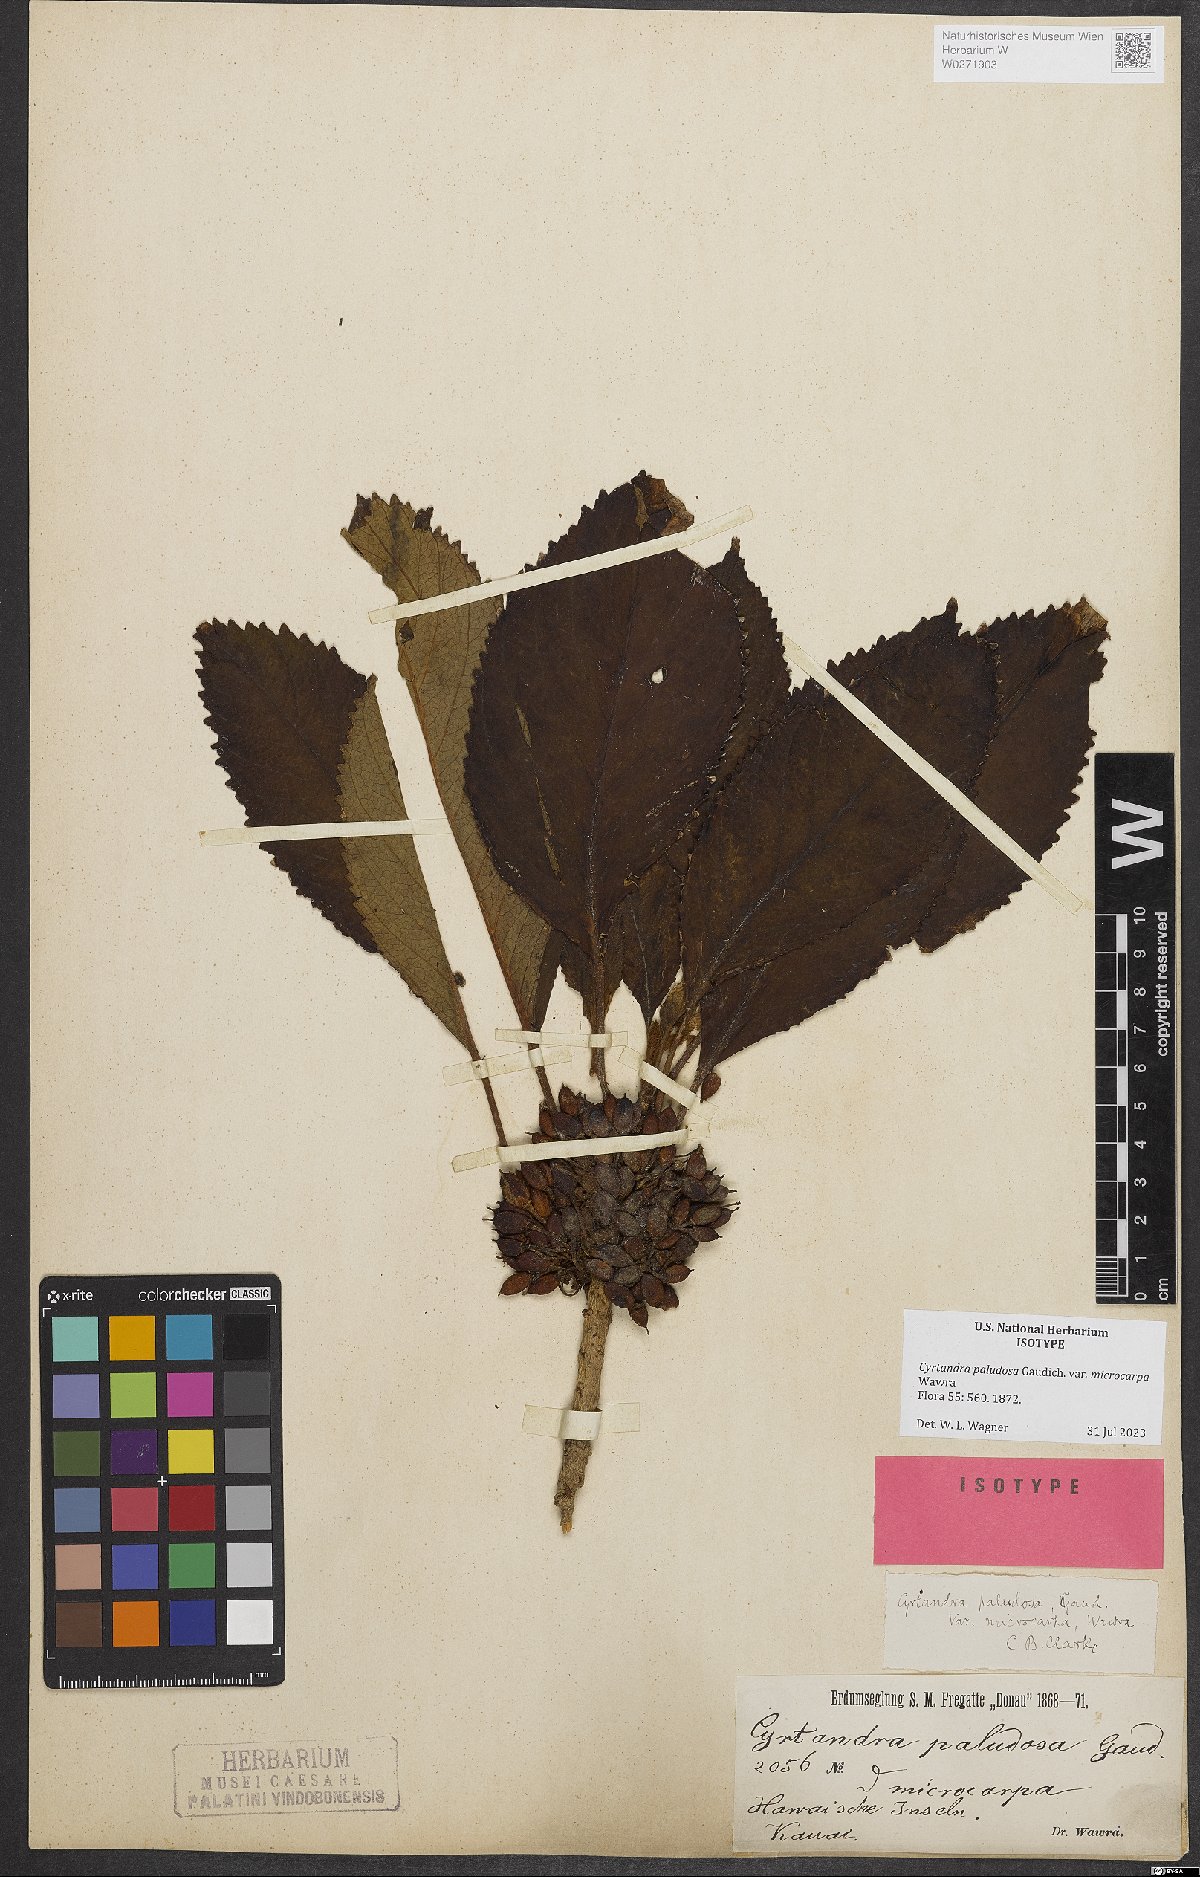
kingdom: Plantae
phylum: Tracheophyta
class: Magnoliopsida
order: Lamiales
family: Gesneriaceae
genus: Cyrtandra
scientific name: Cyrtandra paludosa
